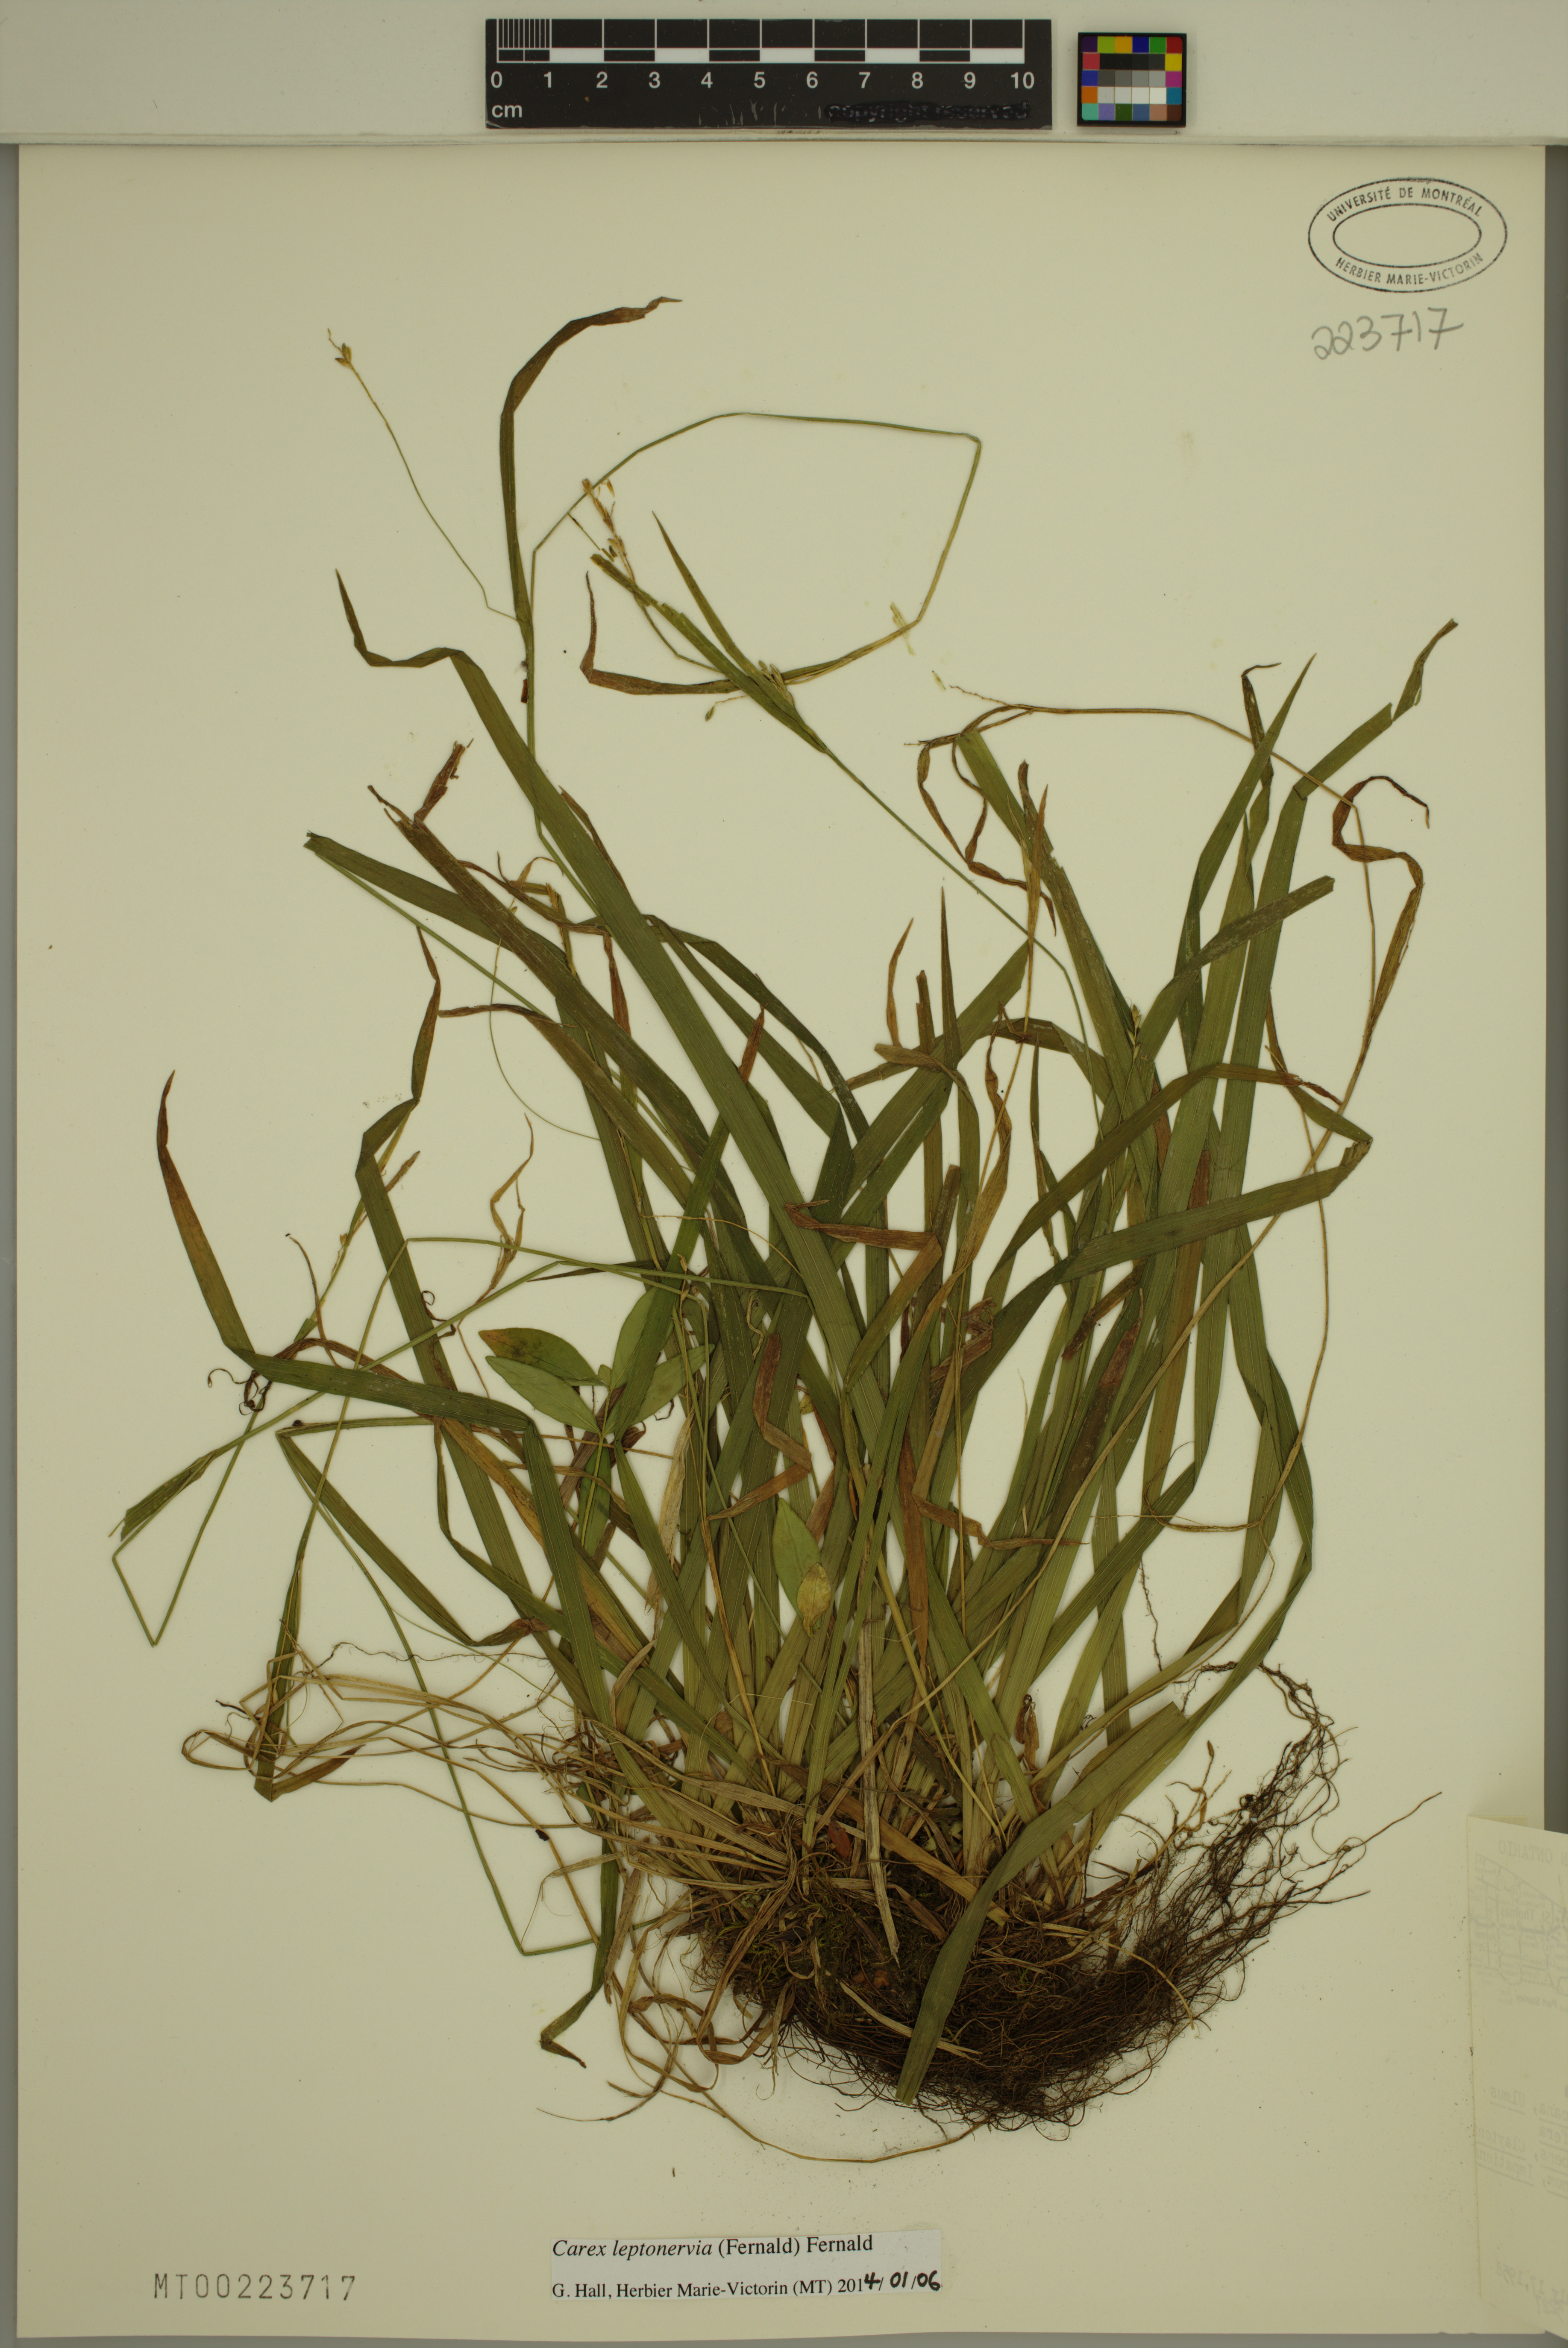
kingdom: Plantae
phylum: Tracheophyta
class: Liliopsida
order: Poales
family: Cyperaceae
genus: Carex
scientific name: Carex leptonervia
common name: Few-nerved wood sedge
